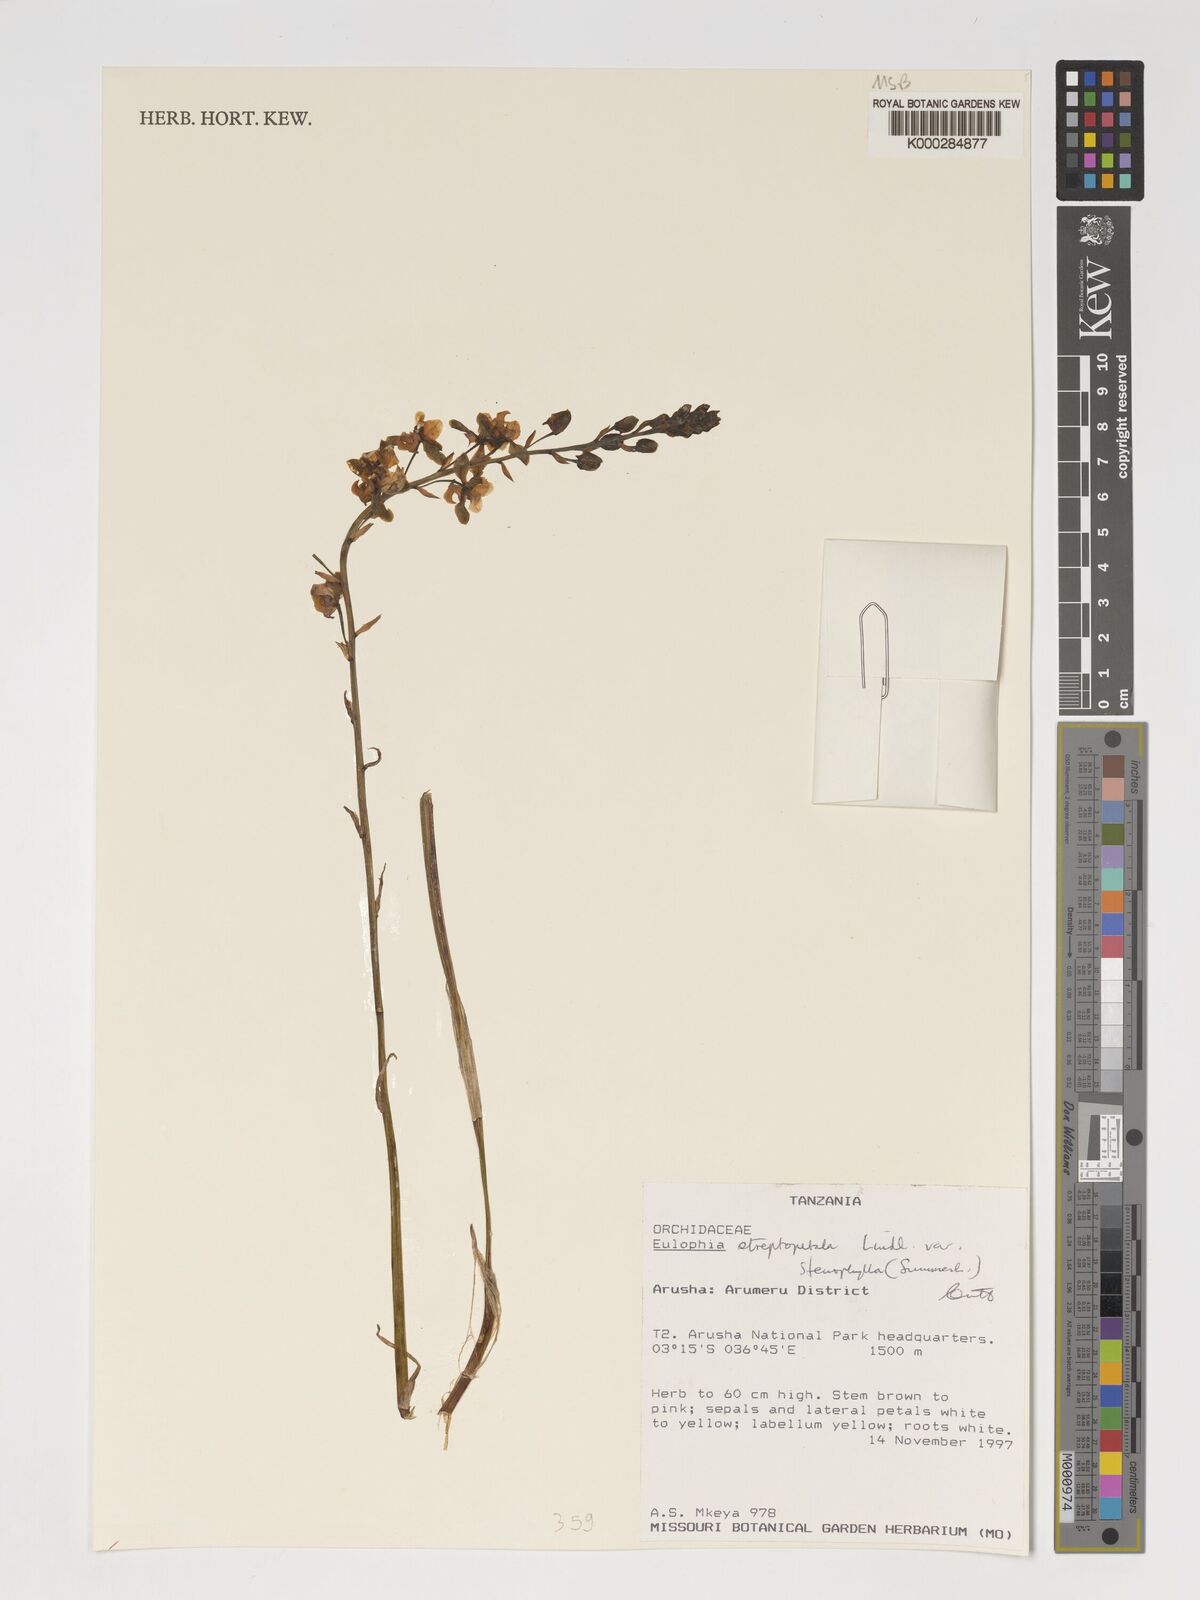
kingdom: Plantae
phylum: Tracheophyta
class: Liliopsida
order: Asparagales
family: Orchidaceae
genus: Eulophia
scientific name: Eulophia streptopetala
